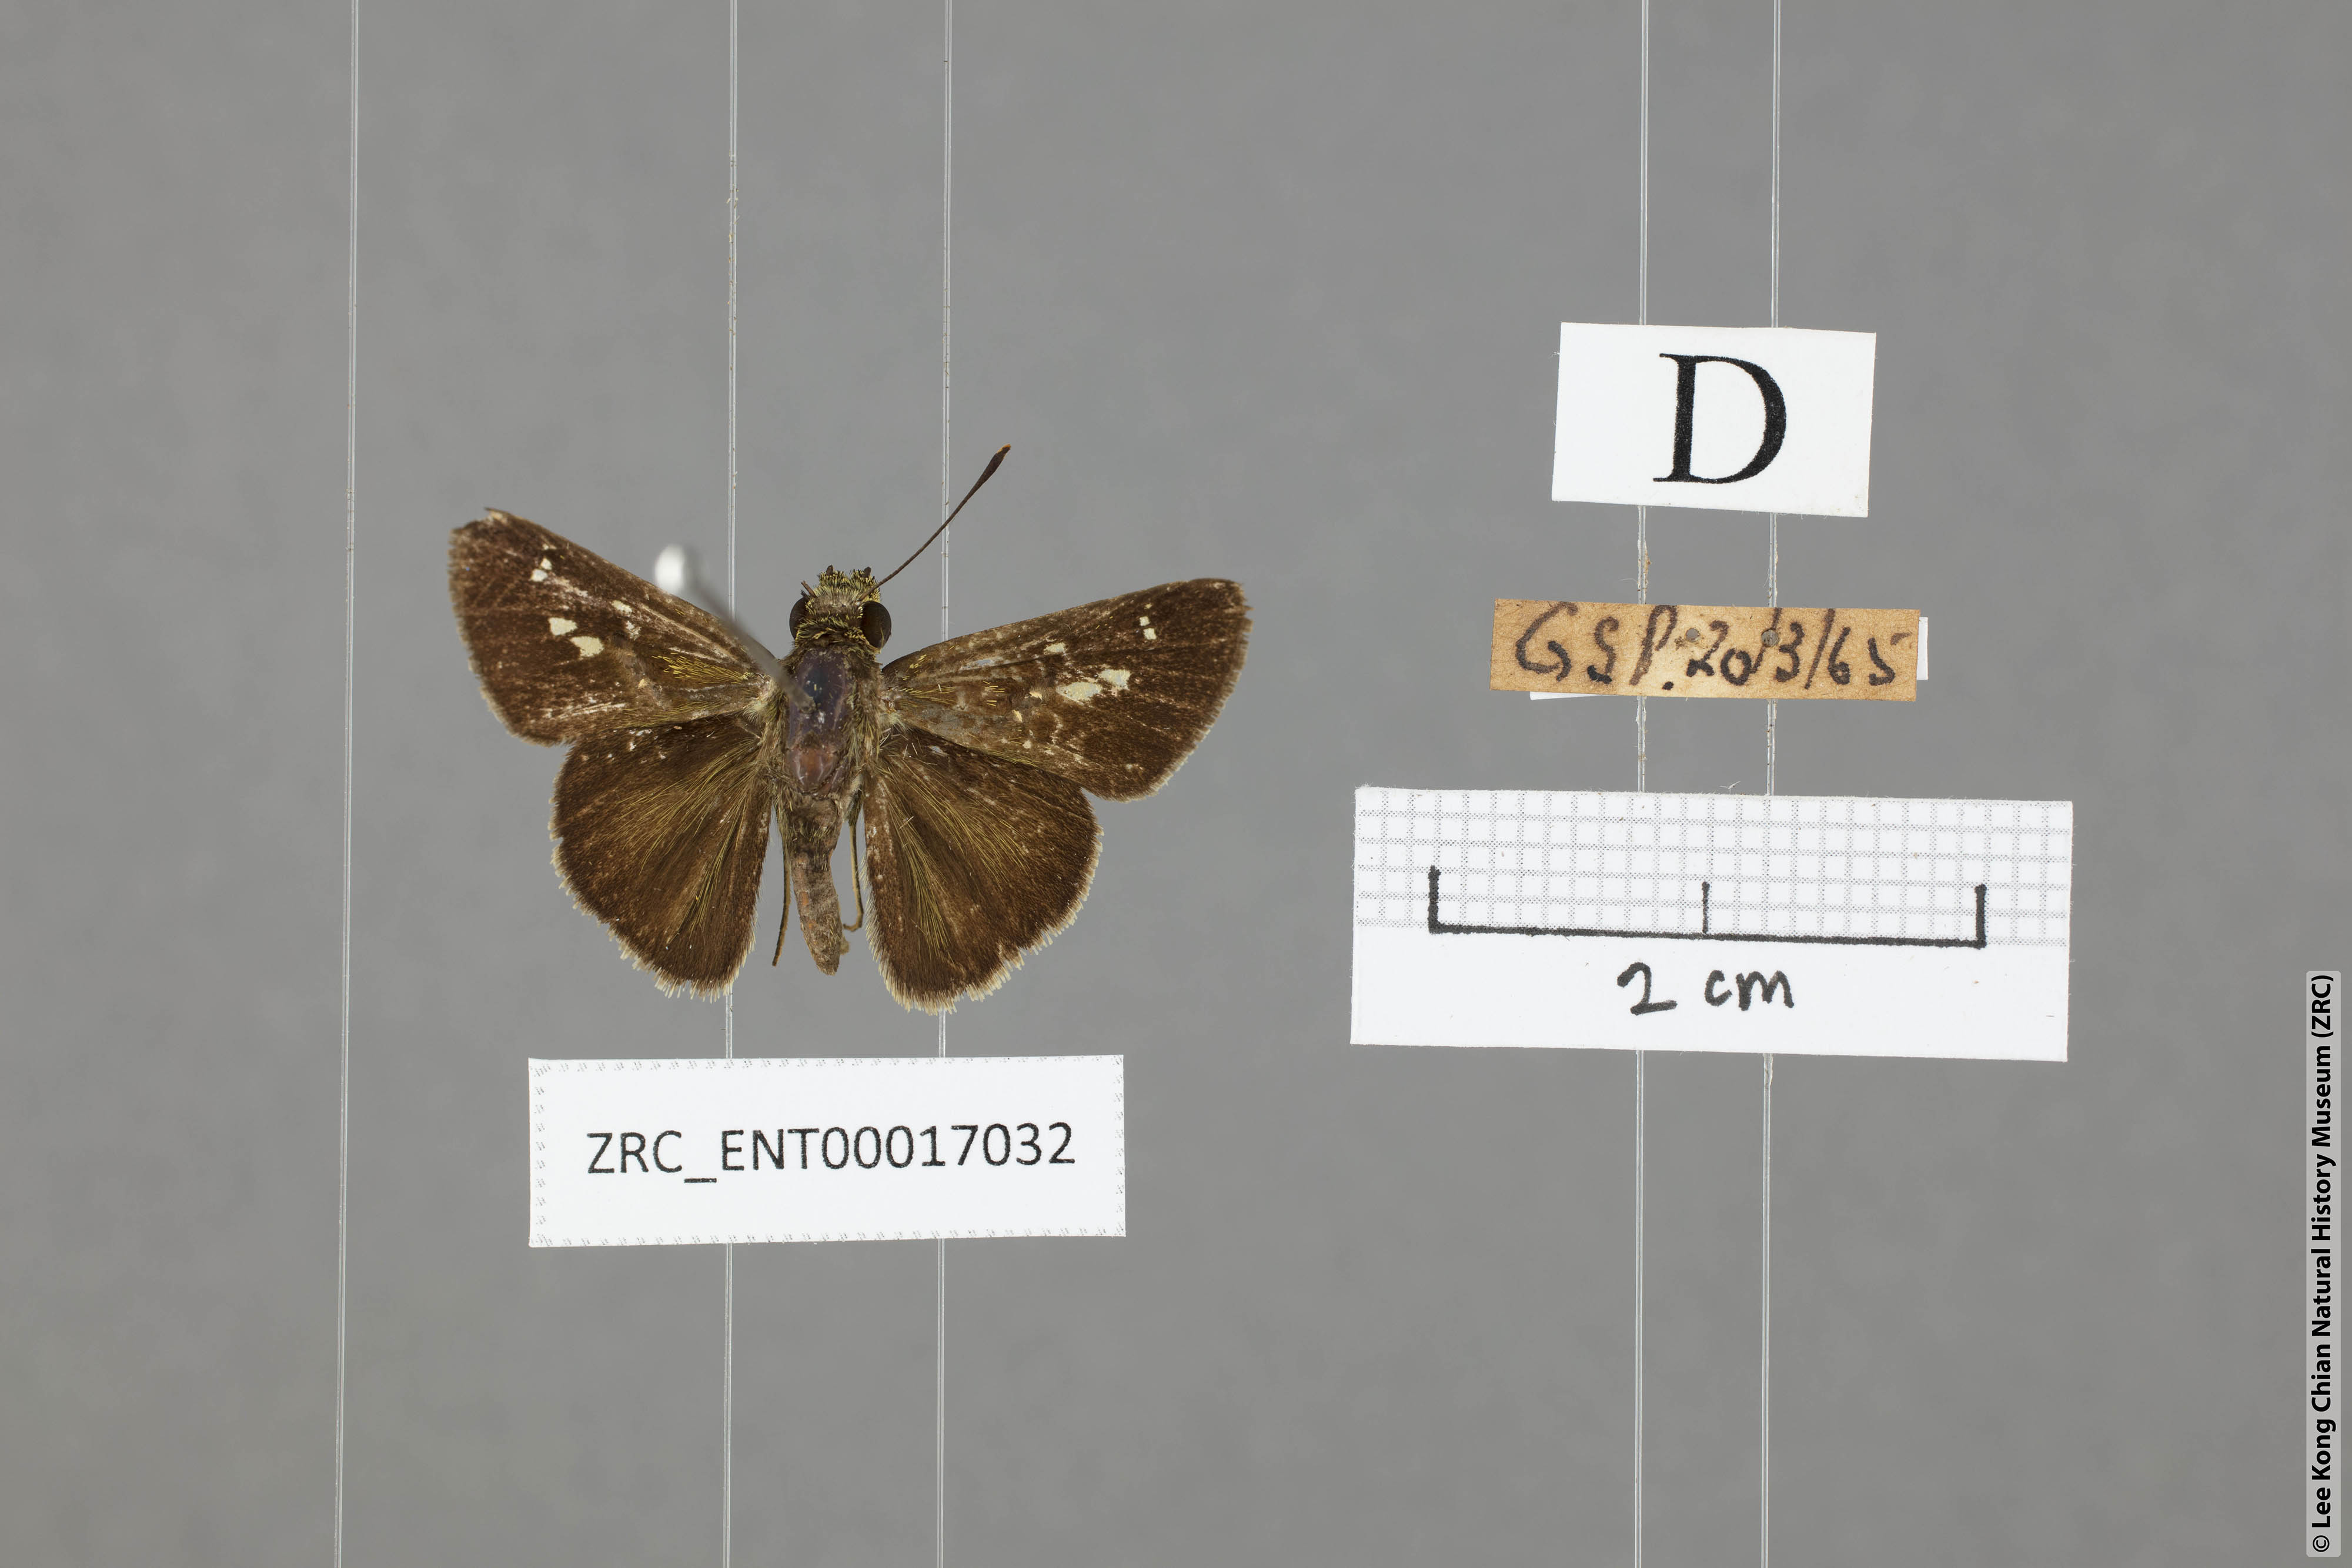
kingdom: Animalia
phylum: Arthropoda
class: Insecta
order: Lepidoptera
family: Hesperiidae
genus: Halpe
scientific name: Halpe pelethronix
